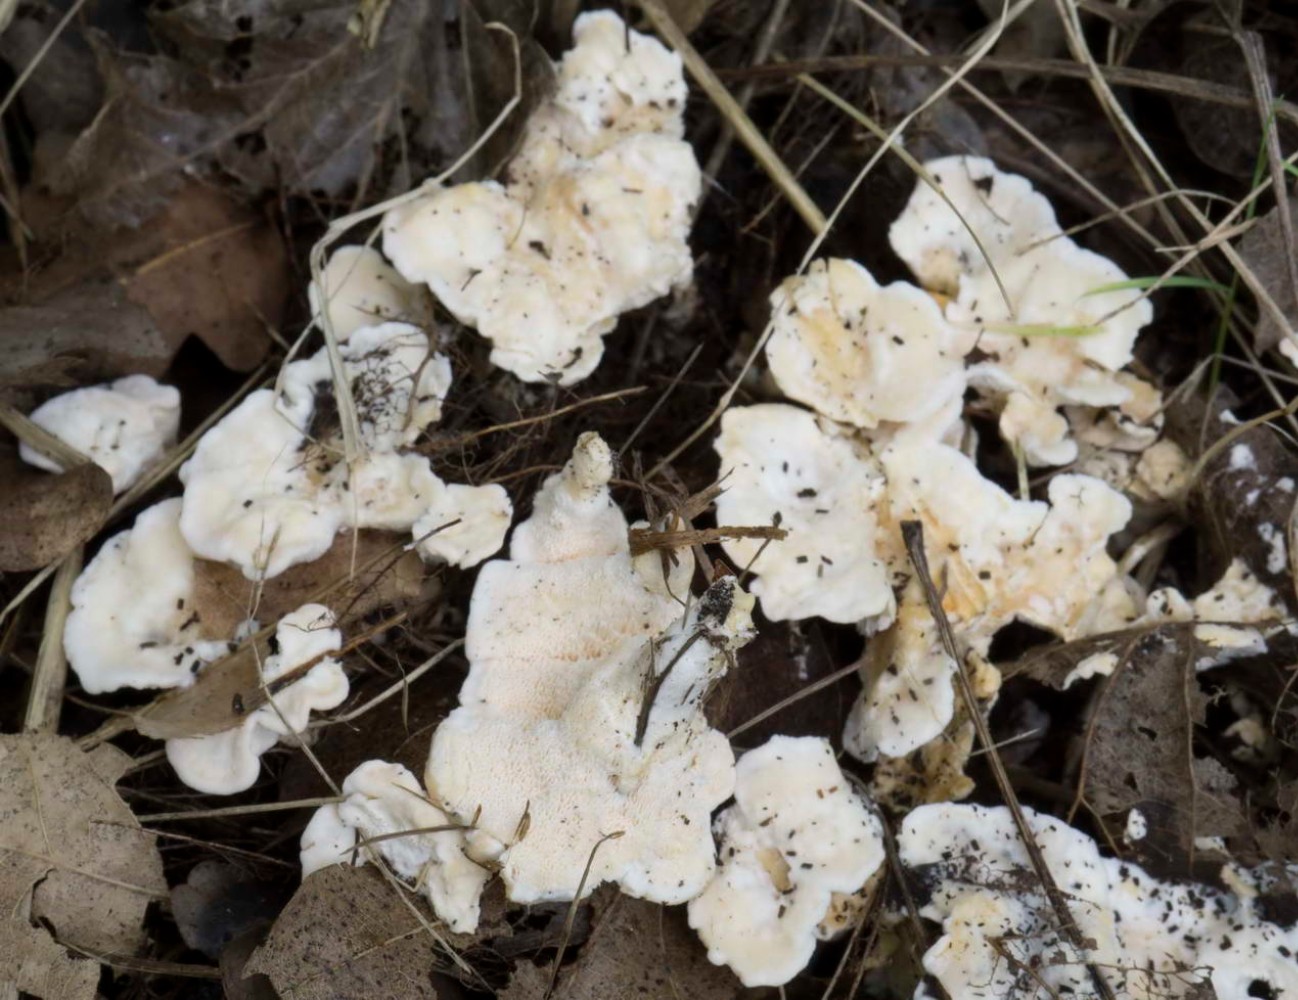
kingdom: Fungi
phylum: Basidiomycota
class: Agaricomycetes
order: Cantharellales
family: Hydnaceae
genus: Sistotrema
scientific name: Sistotrema confluens
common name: stilket kroneskorpe
